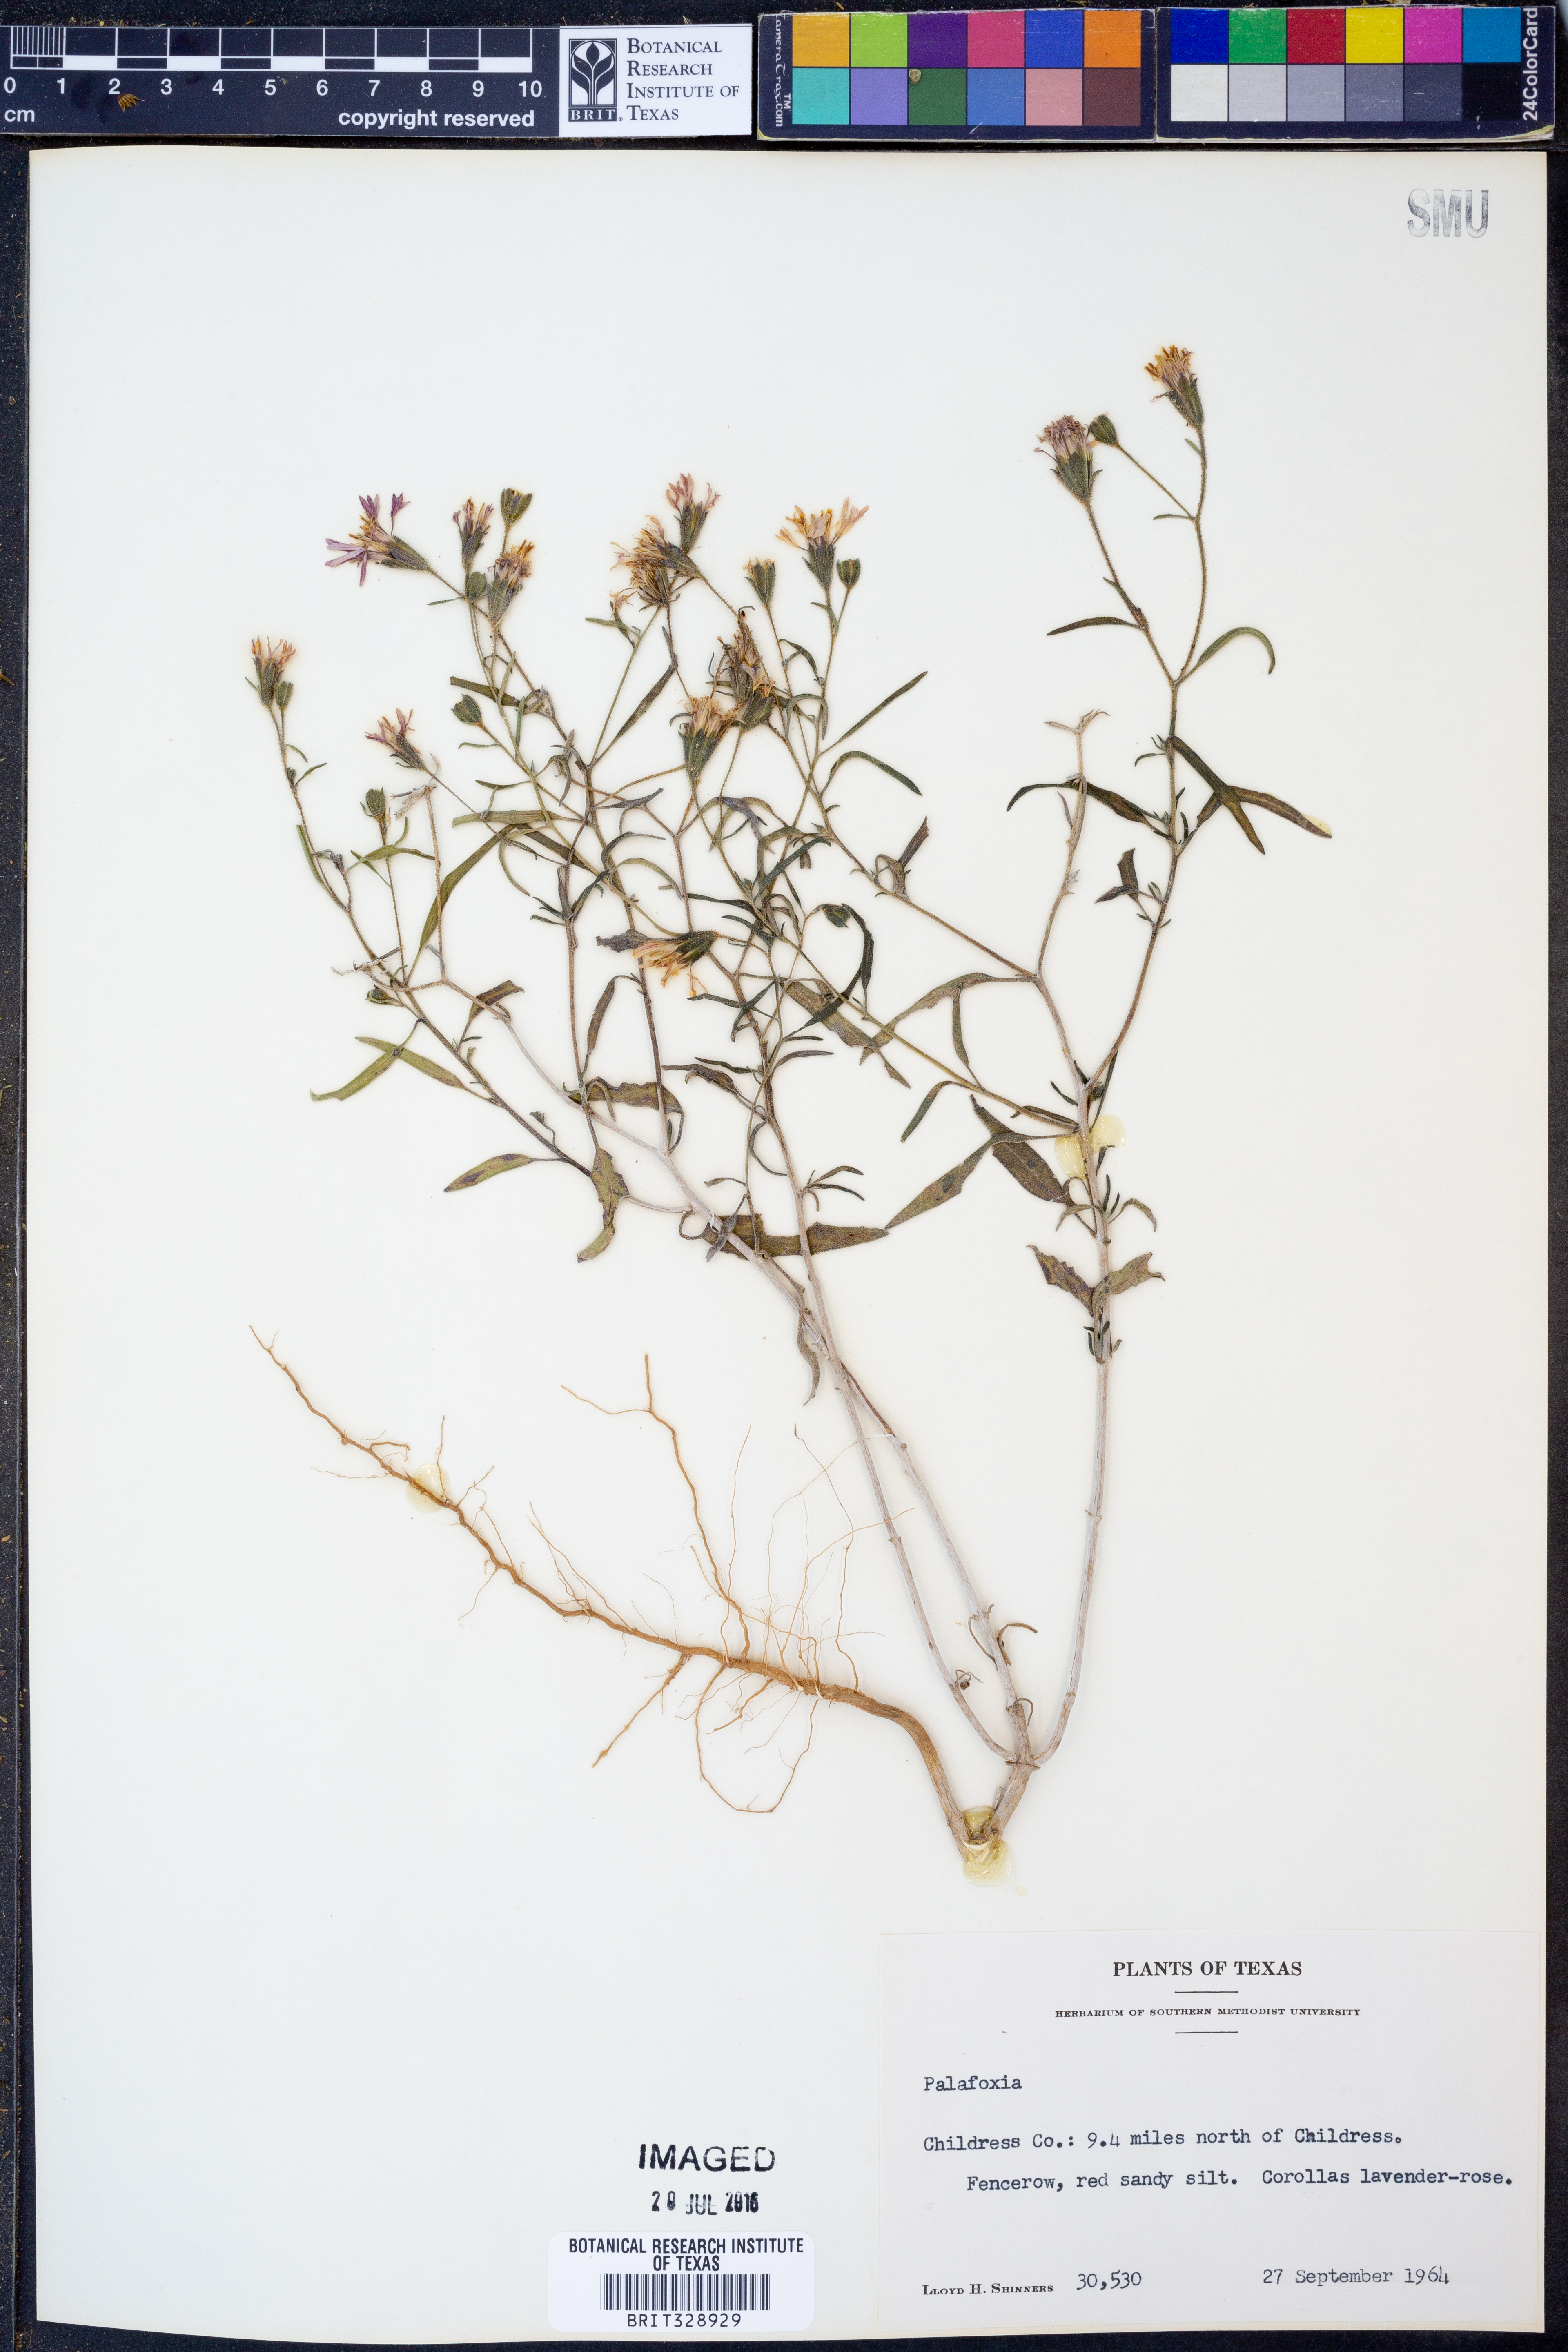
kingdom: Plantae
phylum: Tracheophyta
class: Magnoliopsida
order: Asterales
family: Asteraceae
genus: Palafoxia
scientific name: Palafoxia
